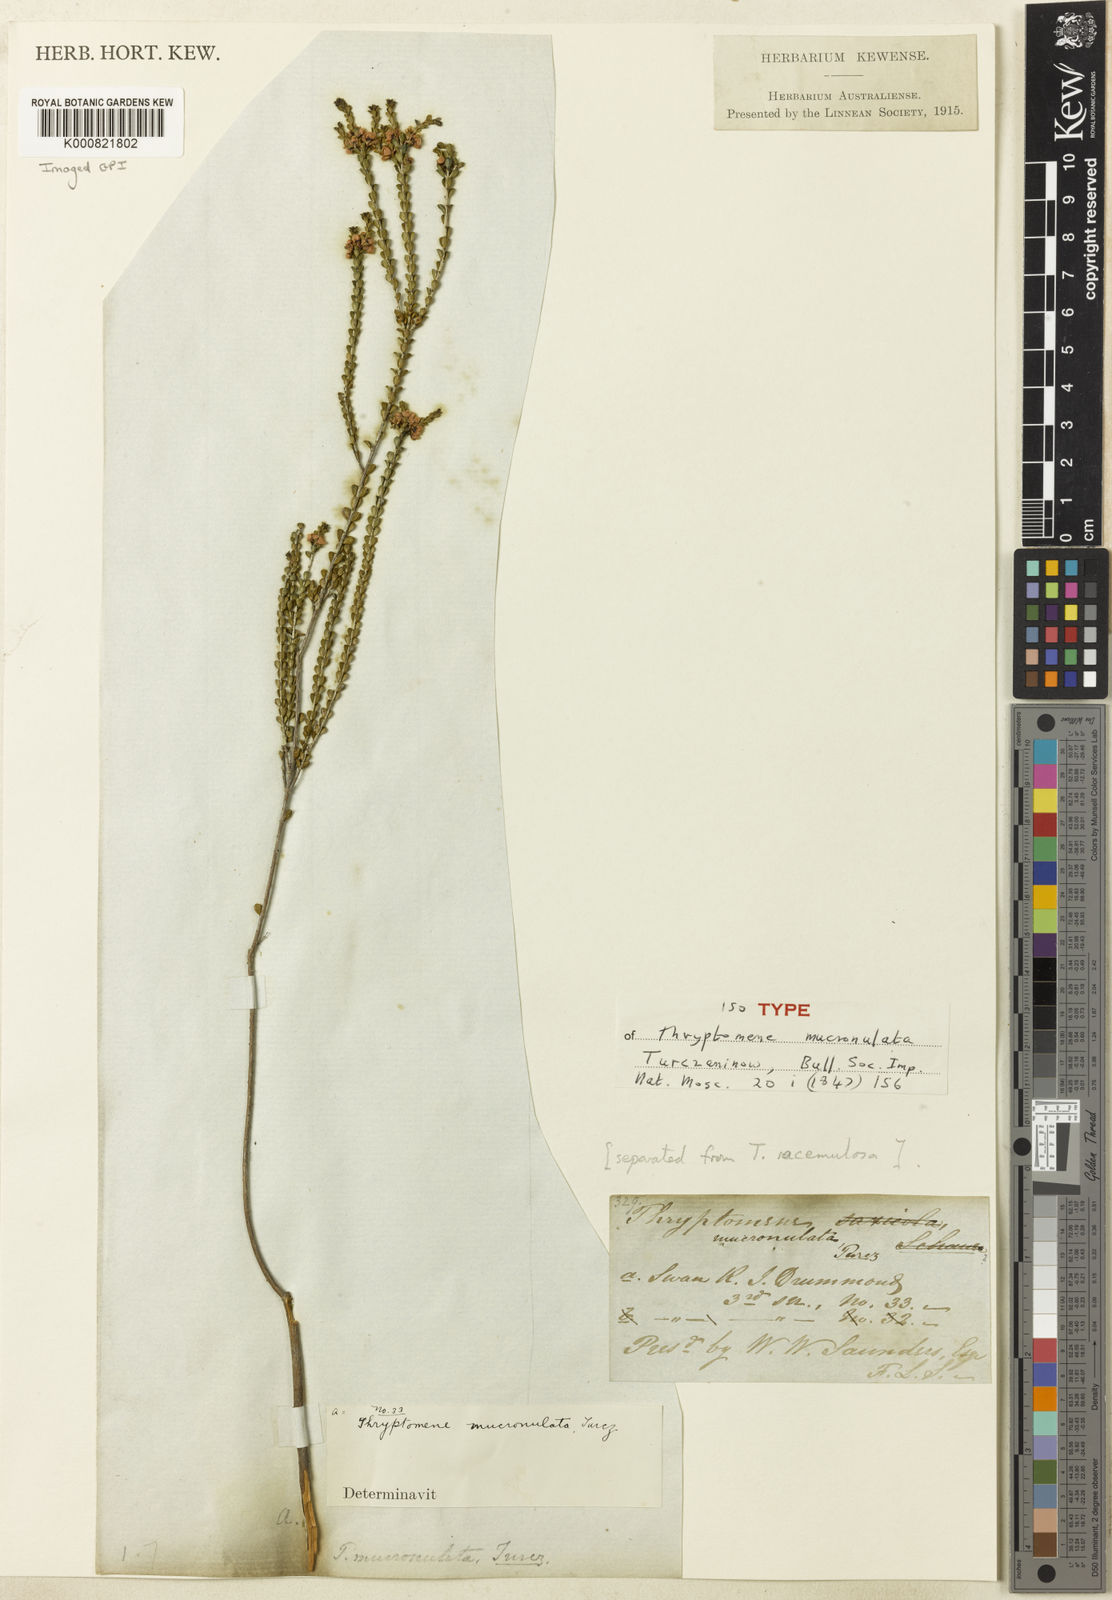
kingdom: Plantae
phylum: Tracheophyta
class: Magnoliopsida
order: Myrtales
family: Myrtaceae
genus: Thryptomene
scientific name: Thryptomene mucronulata
